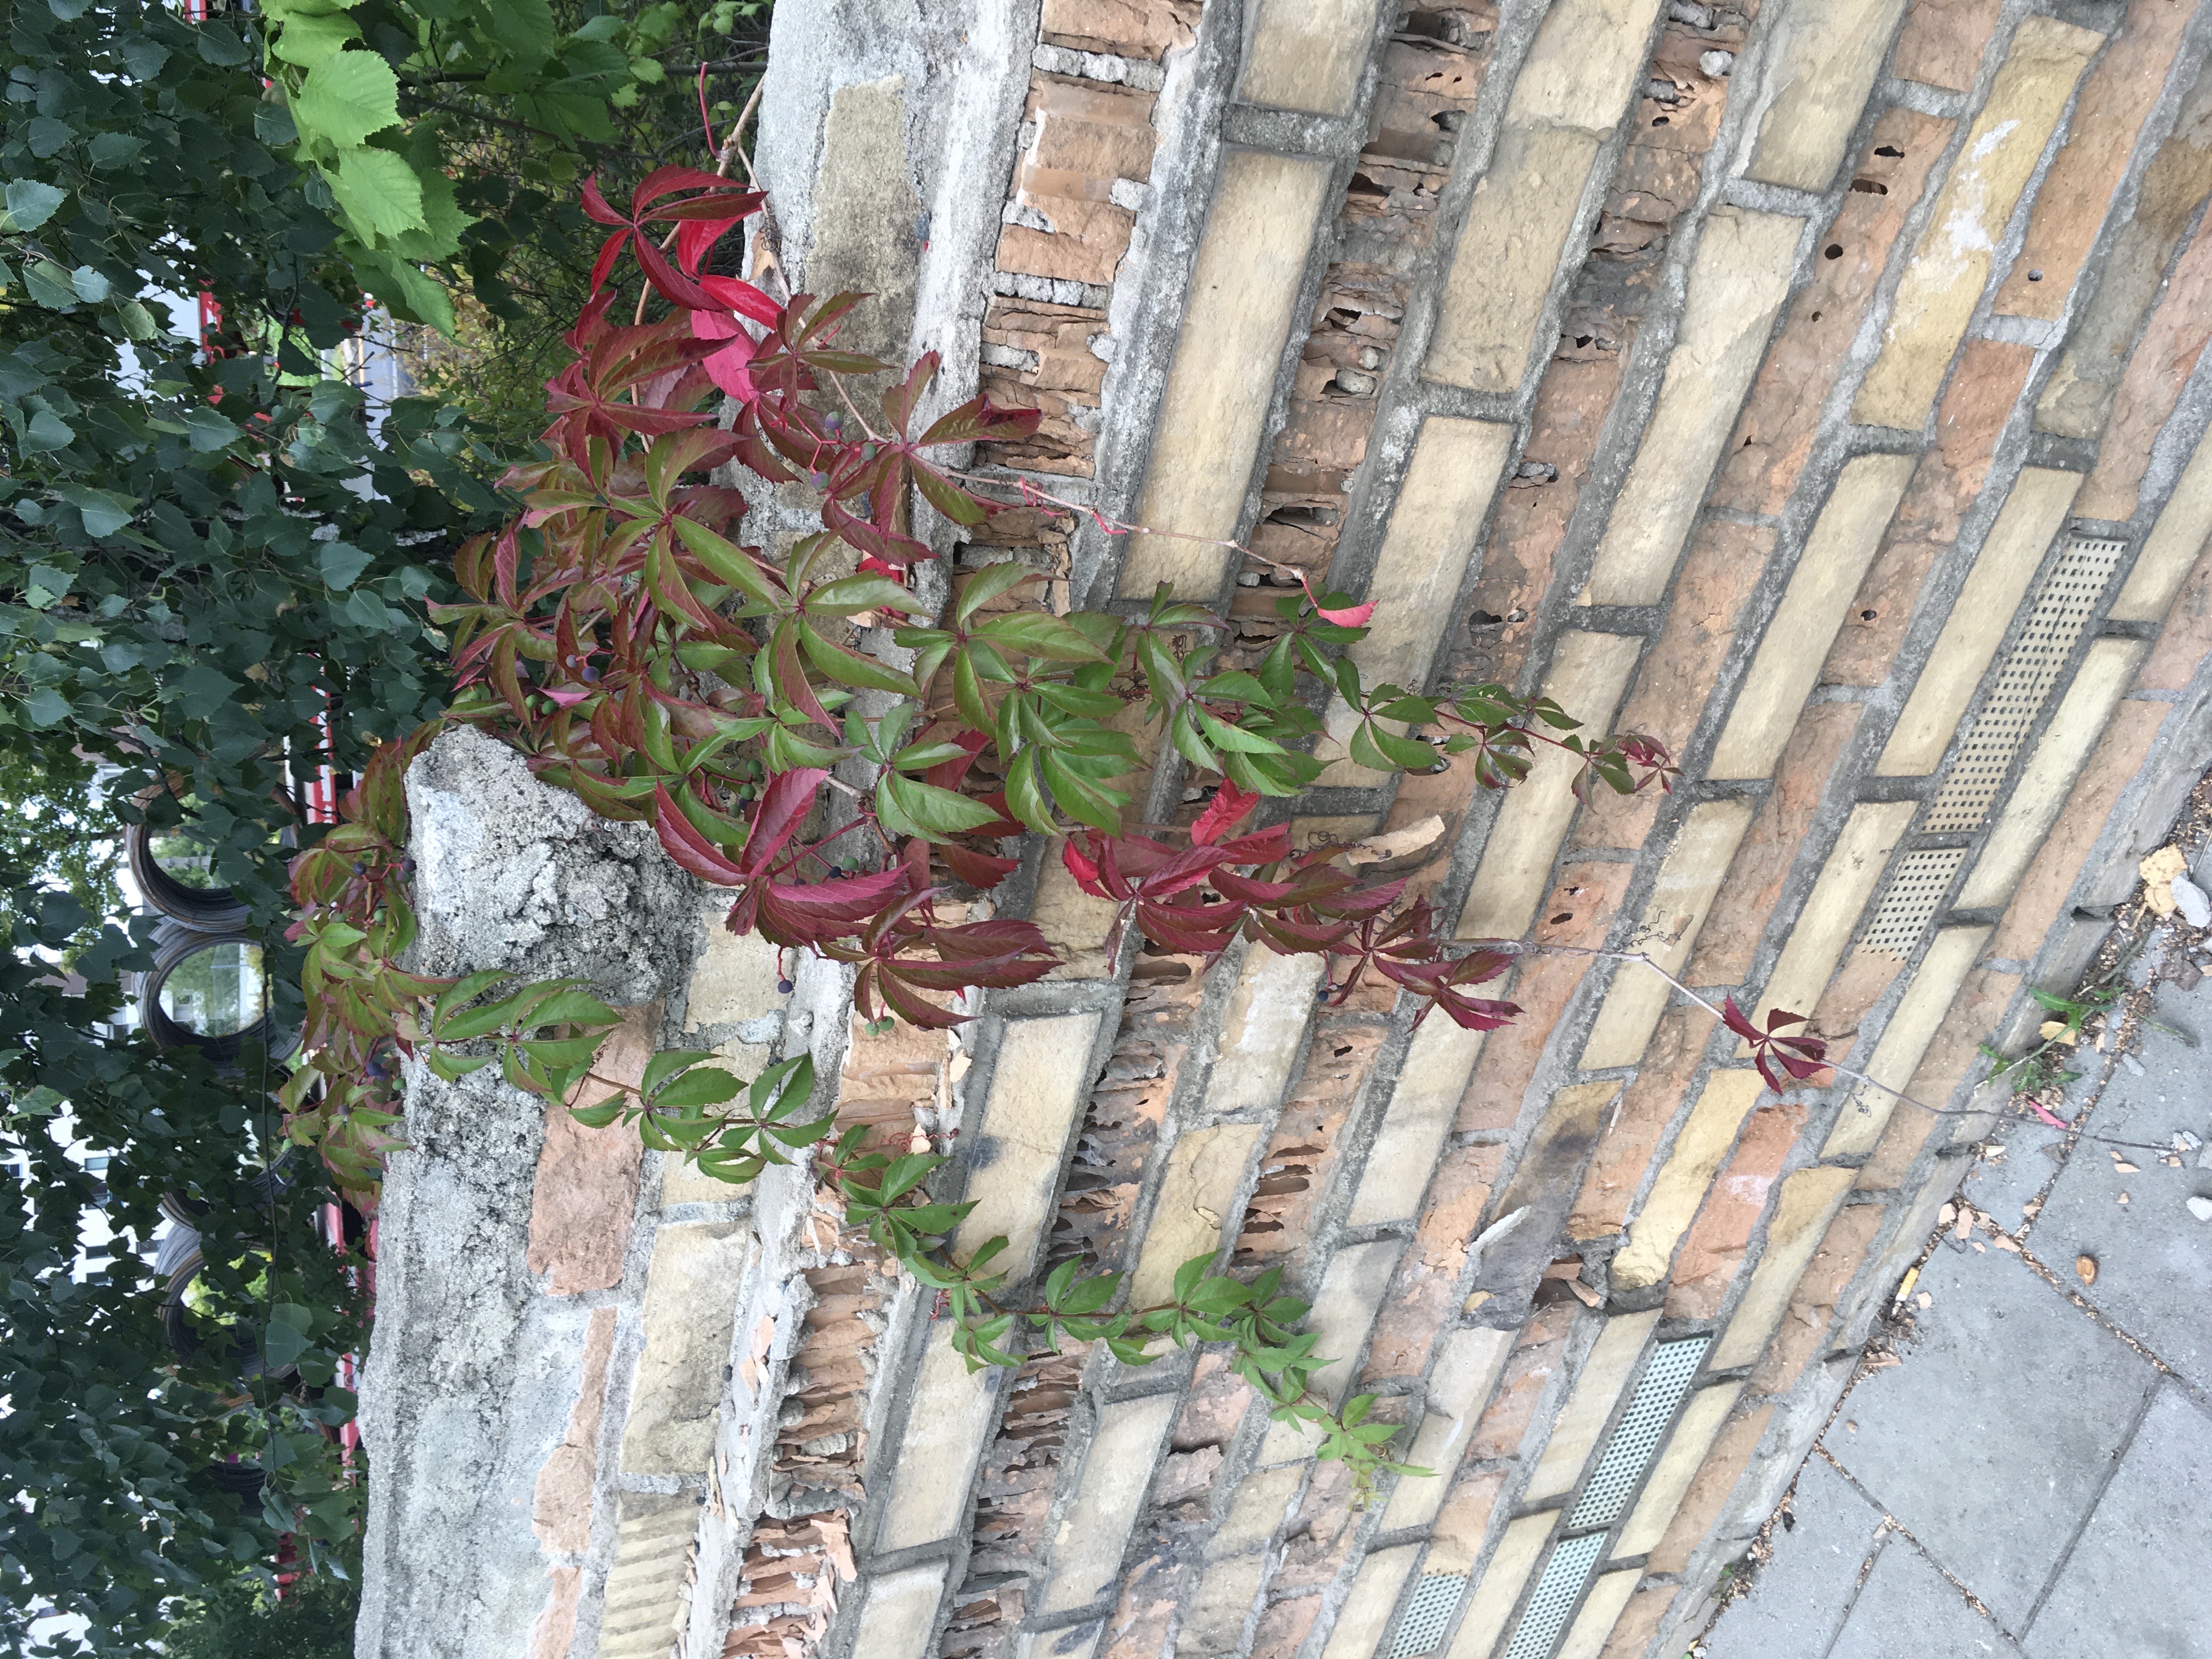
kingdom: Plantae
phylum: Tracheophyta
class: Magnoliopsida
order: Vitales
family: Vitaceae
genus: Parthenocissus
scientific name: Parthenocissus quinquefolia
